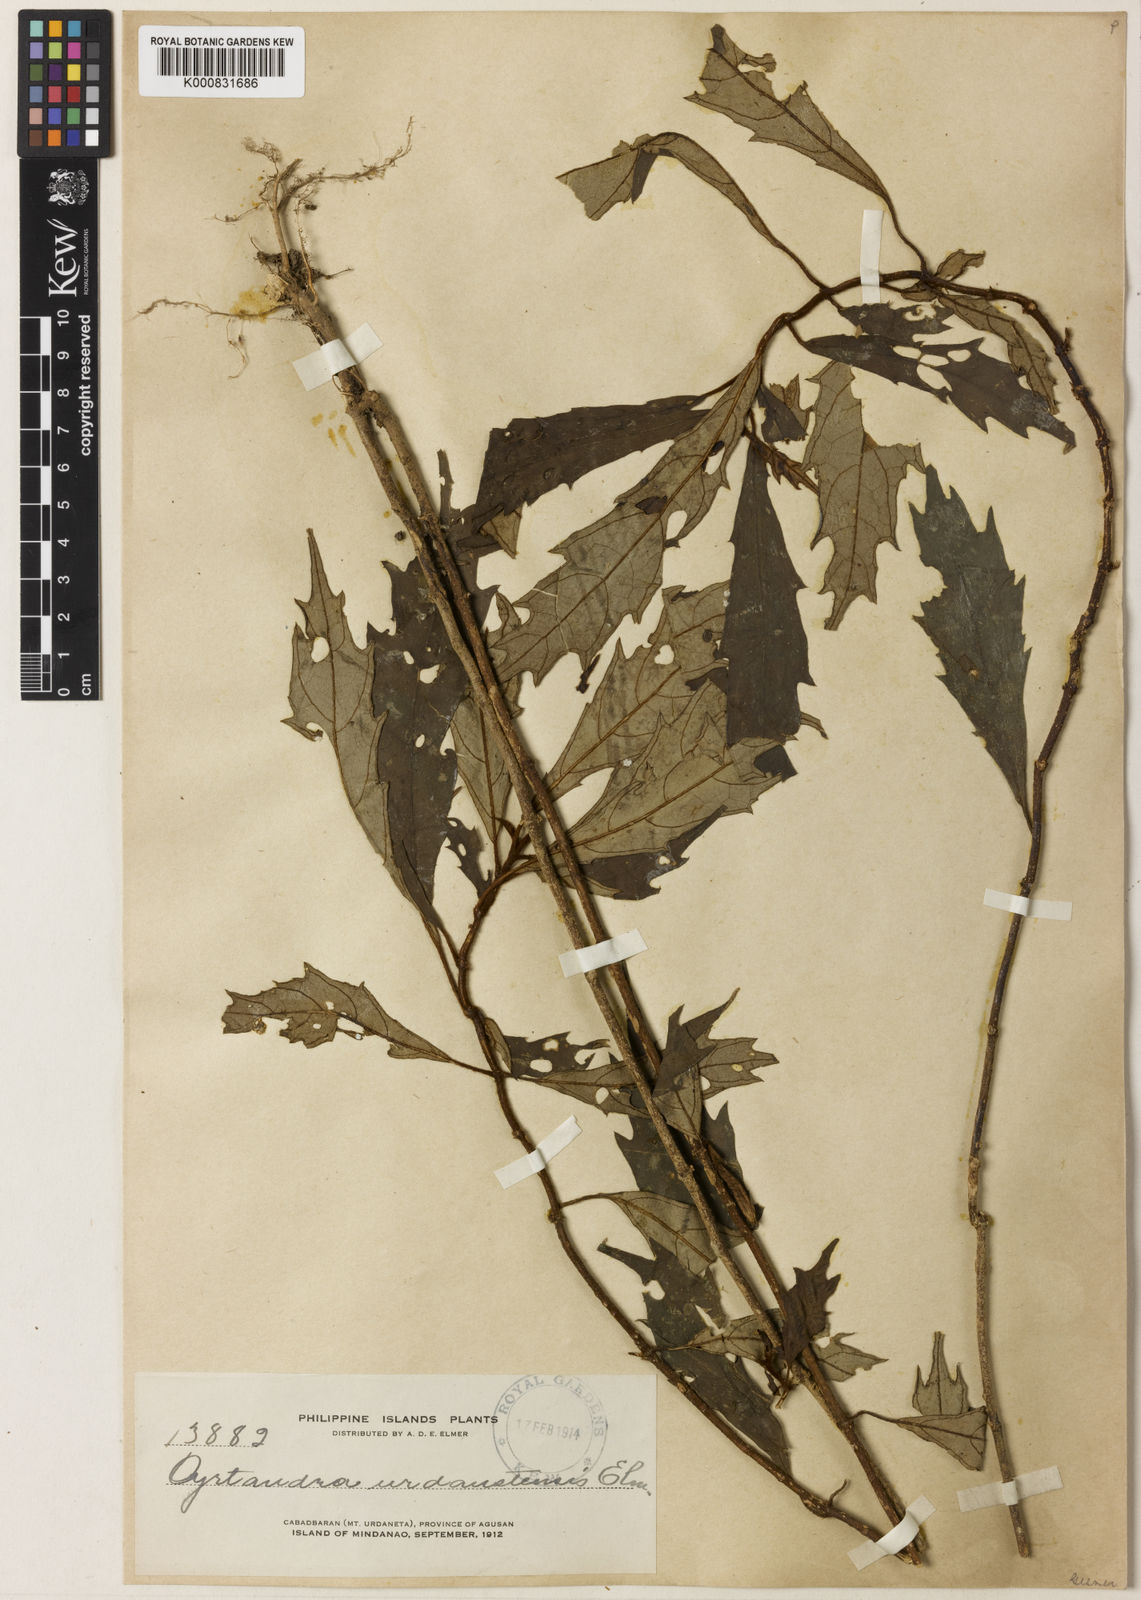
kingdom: Plantae
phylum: Tracheophyta
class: Magnoliopsida
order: Lamiales
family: Gesneriaceae
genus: Cyrtandra
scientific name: Cyrtandra urdanetensis
